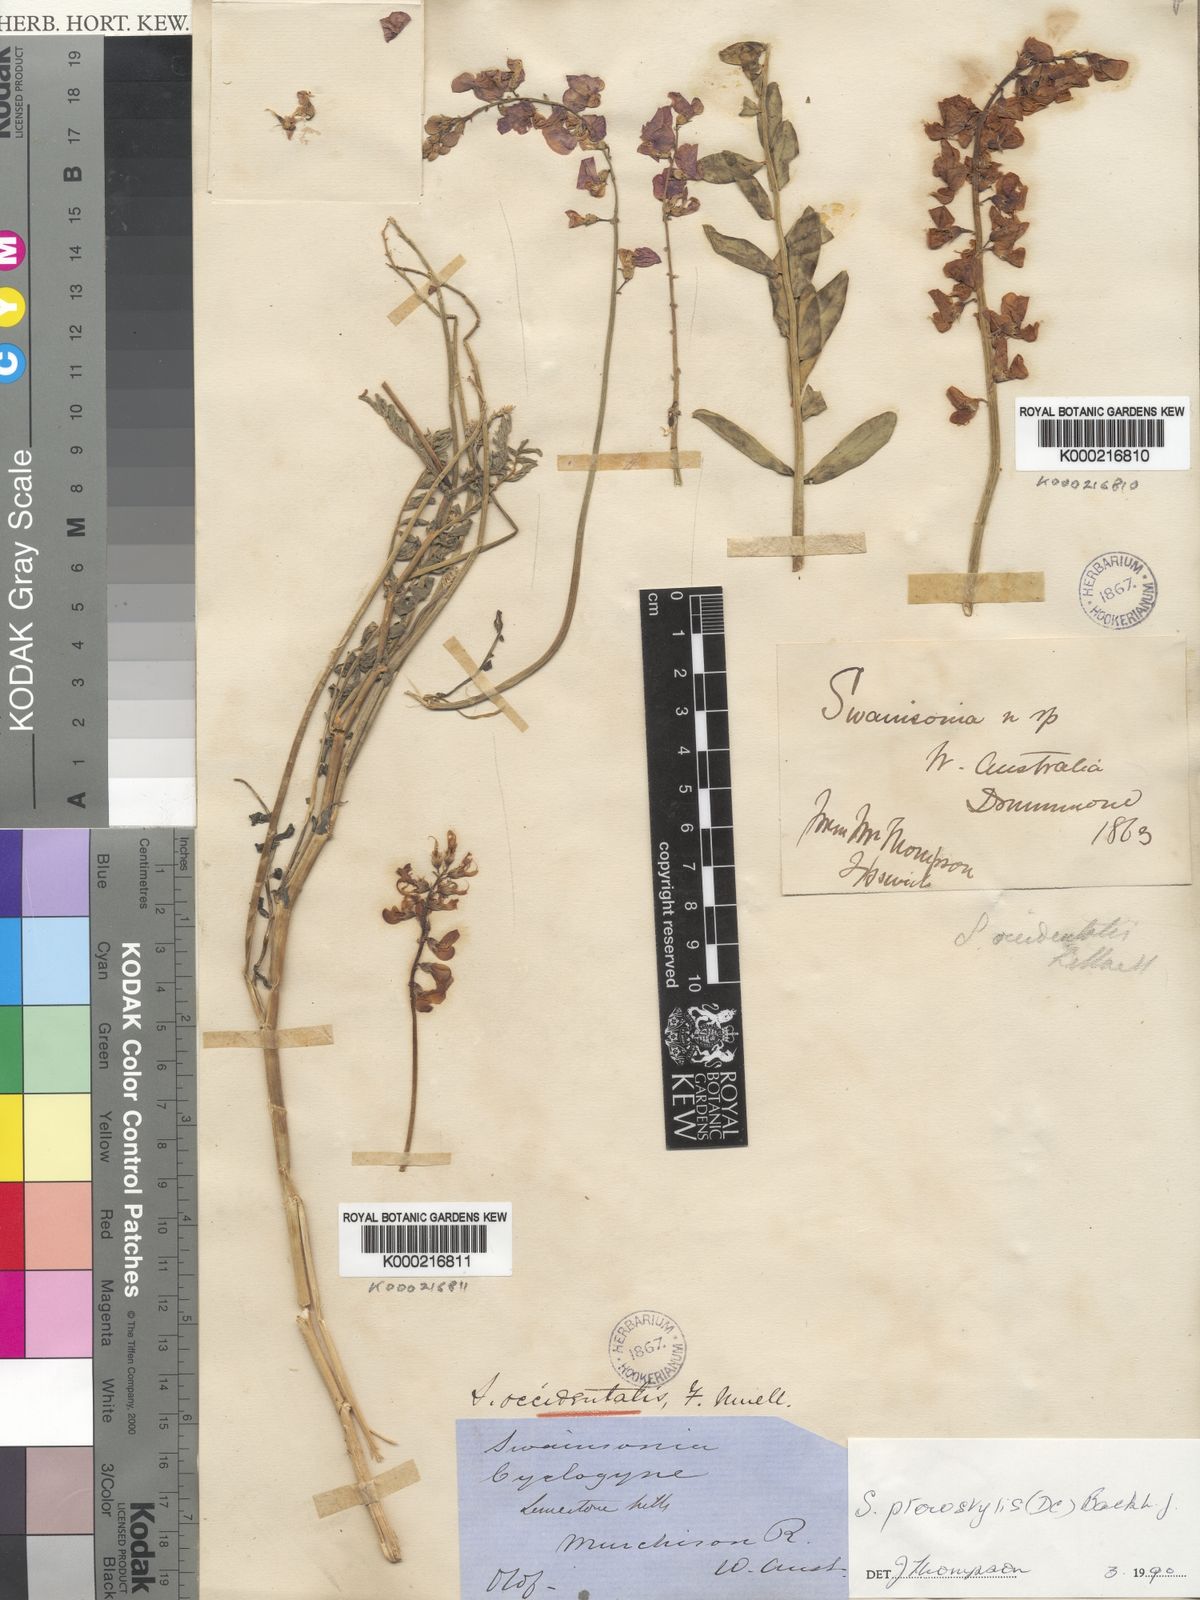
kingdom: Plantae
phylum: Tracheophyta
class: Magnoliopsida
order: Fabales
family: Fabaceae
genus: Swainsona
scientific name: Swainsona pterostylis
